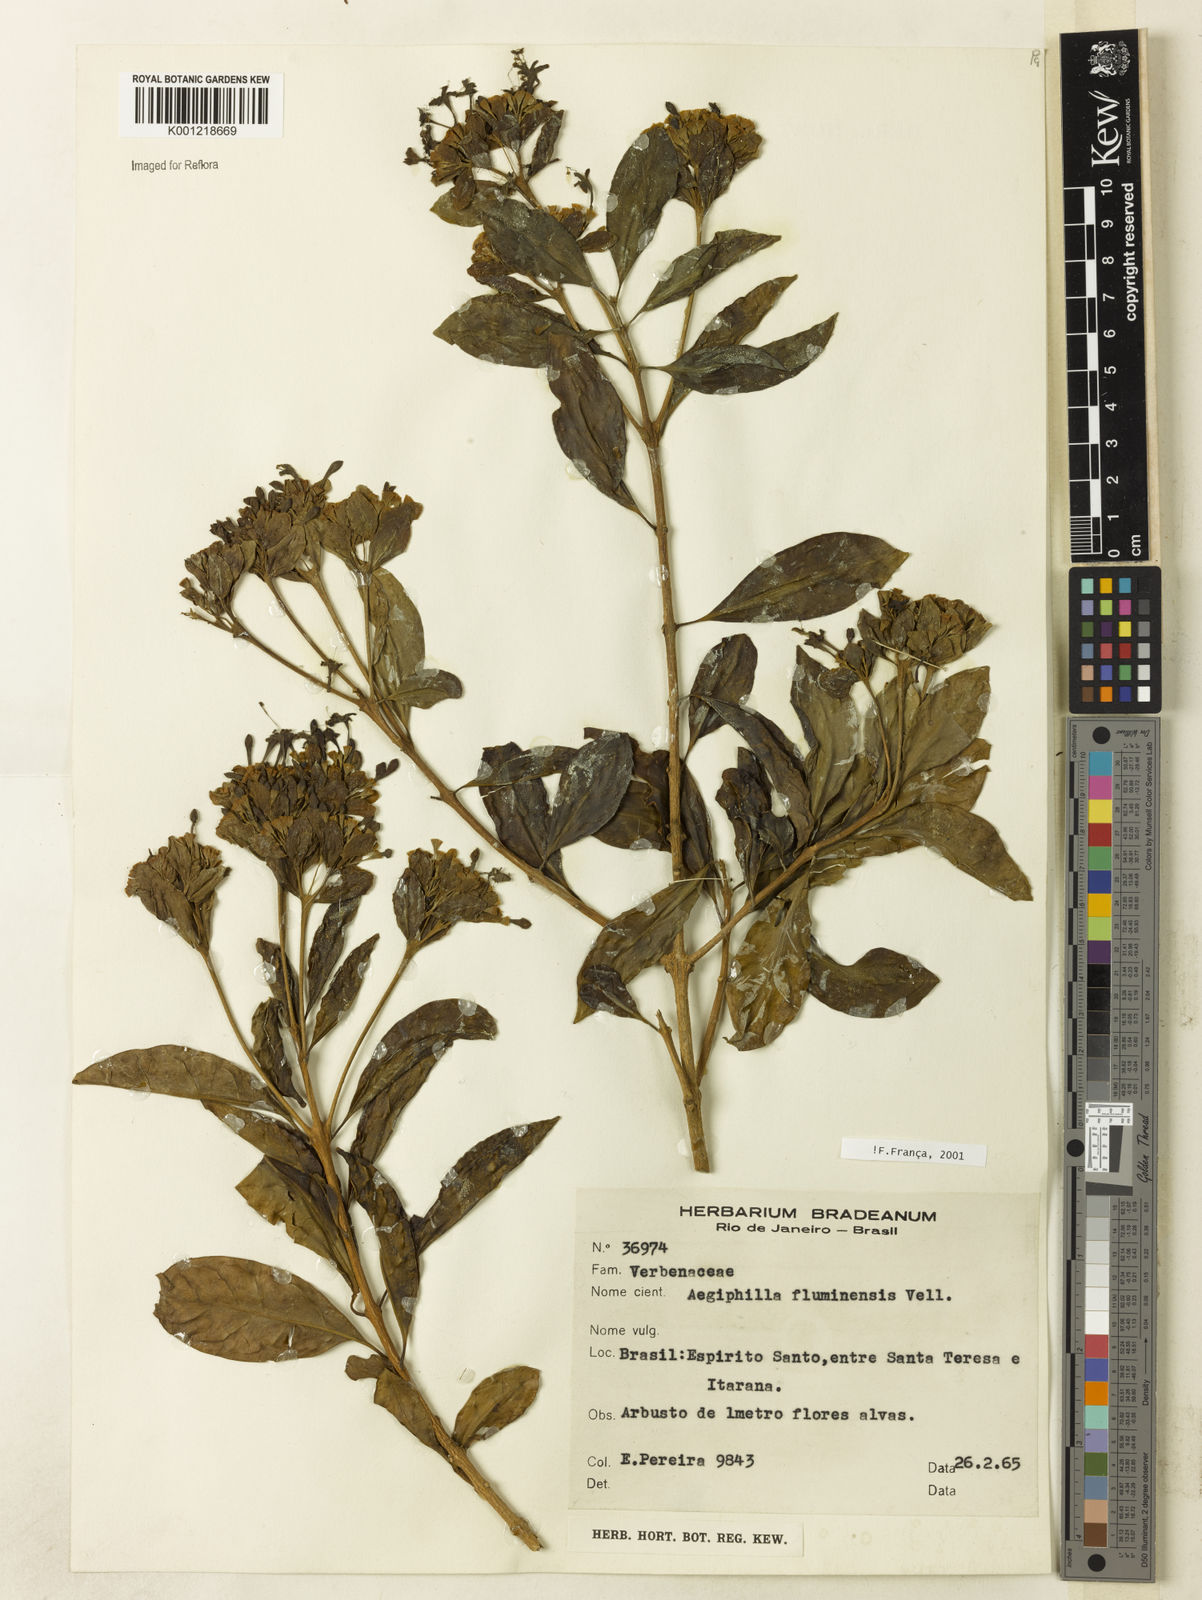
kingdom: Plantae
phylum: Tracheophyta
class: Magnoliopsida
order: Lamiales
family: Lamiaceae
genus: Aegiphila
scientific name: Aegiphila fluminensis
